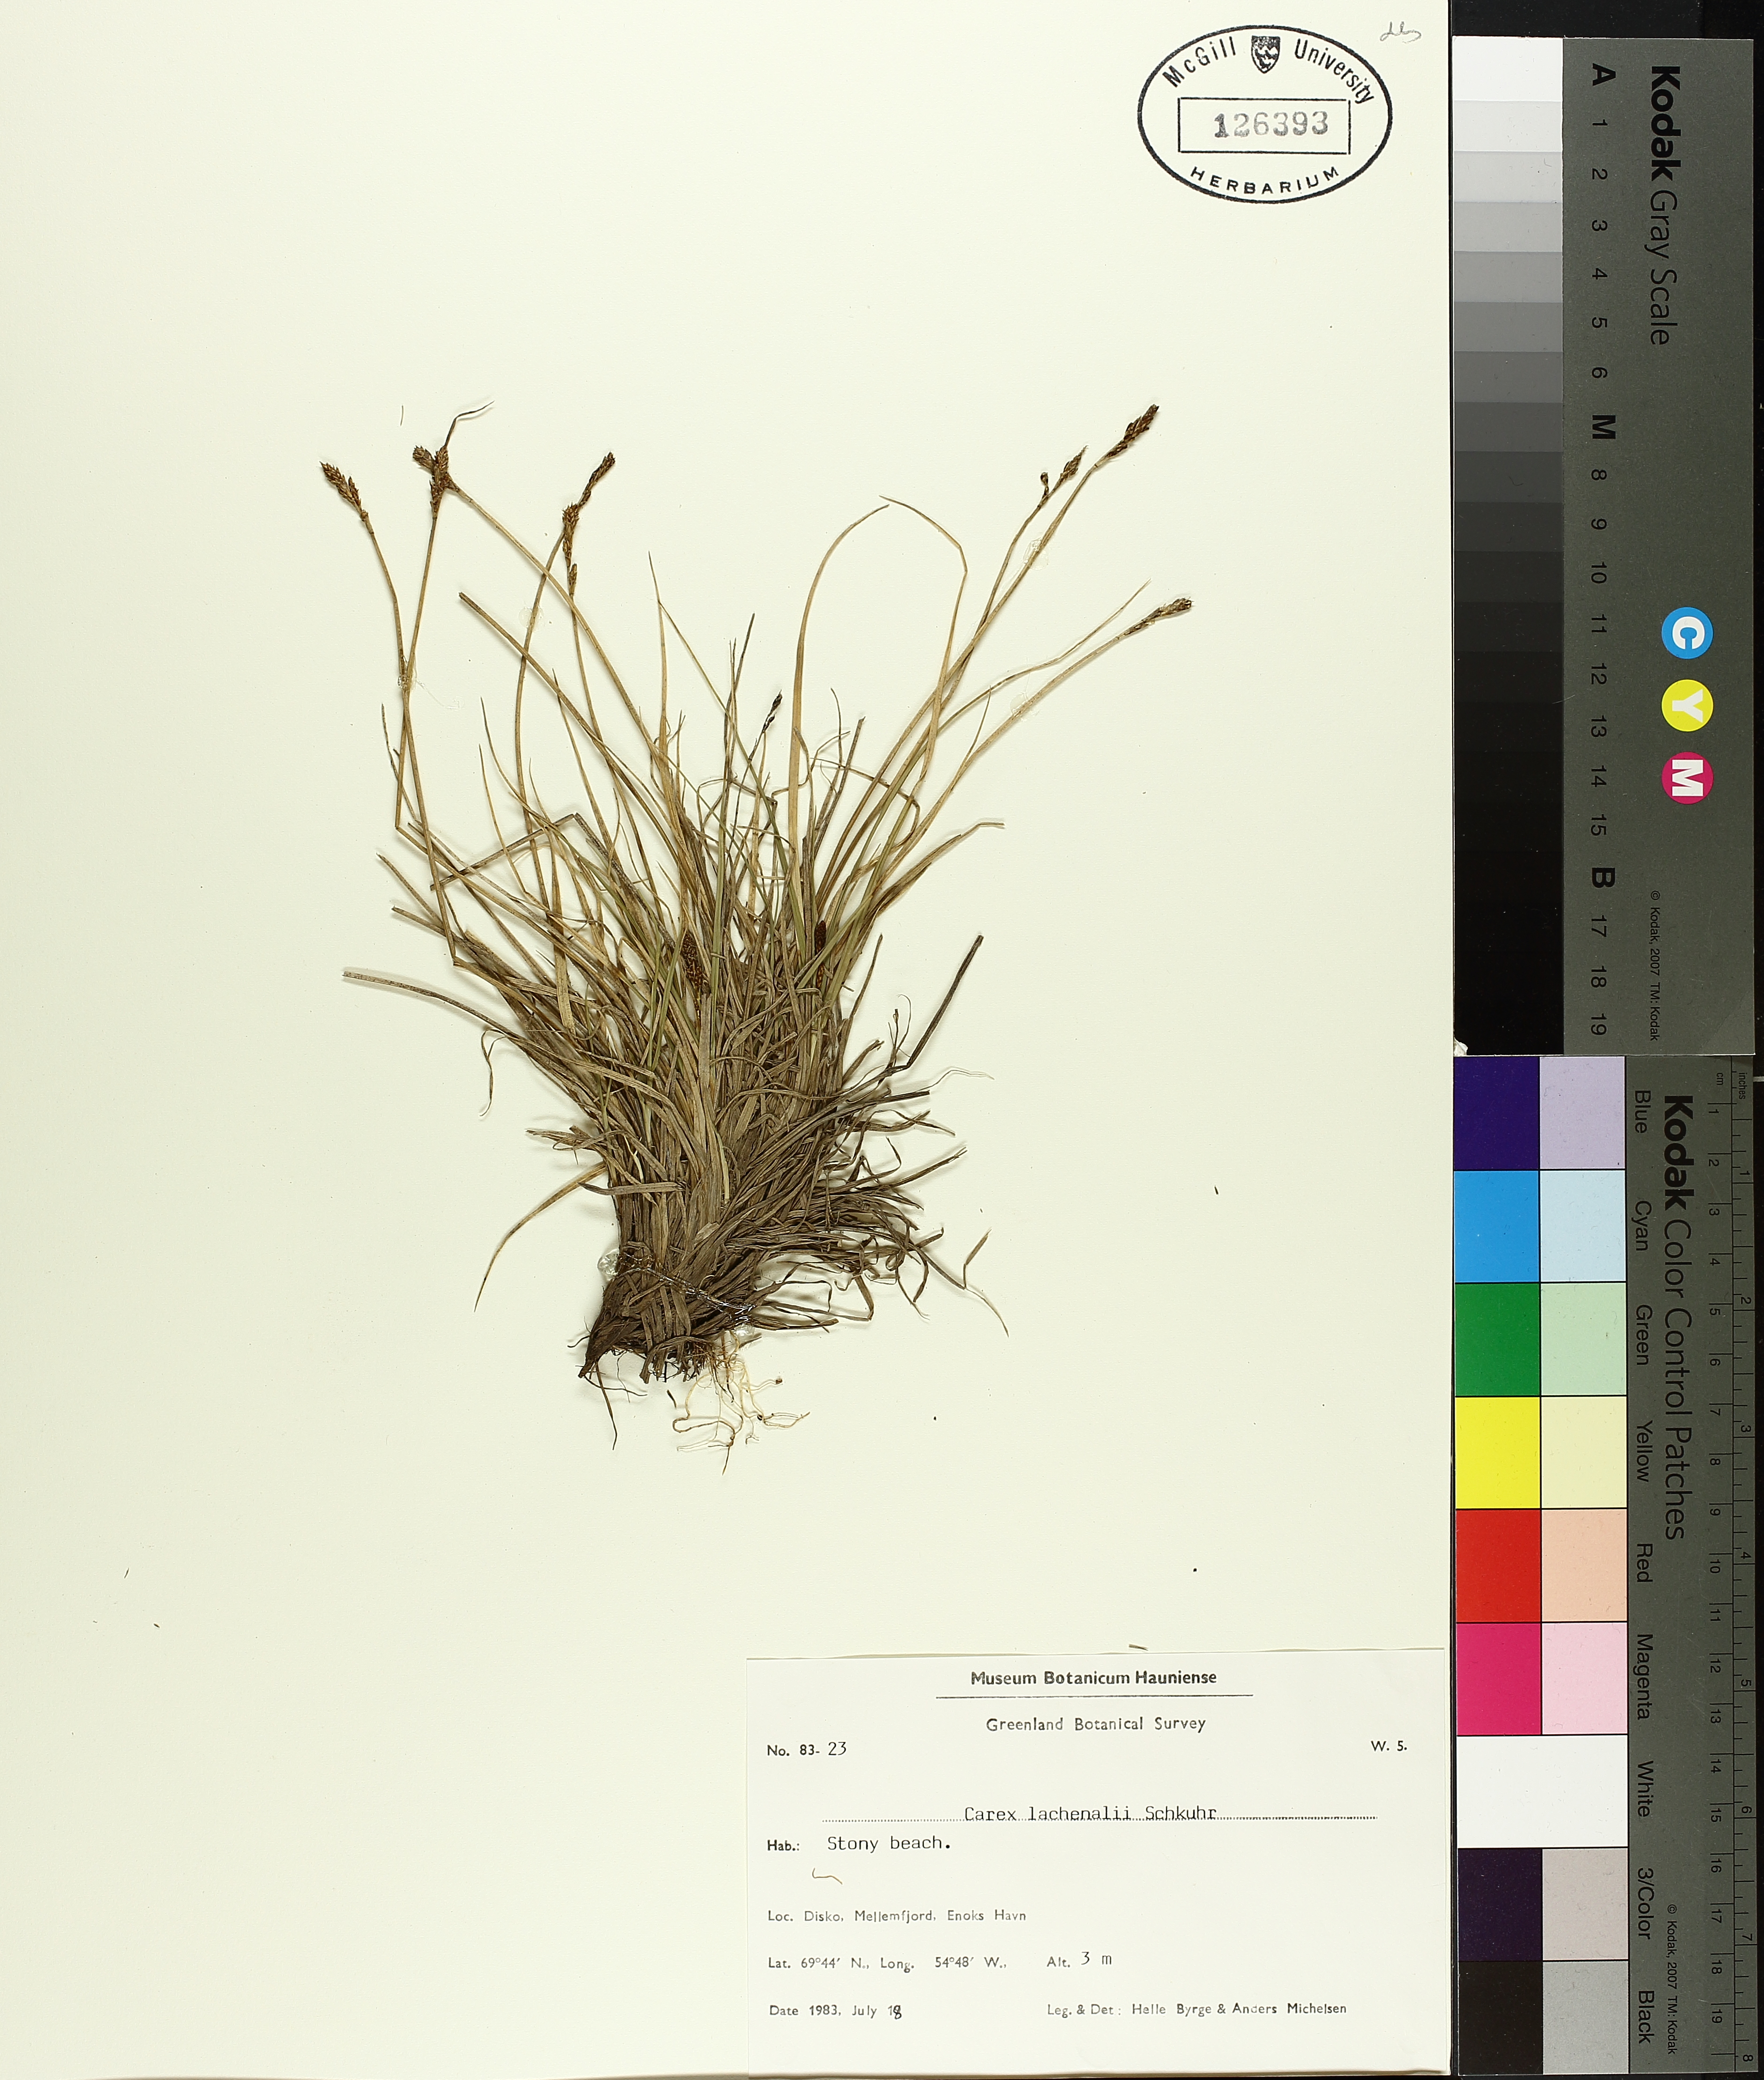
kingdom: Plantae
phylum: Tracheophyta
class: Liliopsida
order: Poales
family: Cyperaceae
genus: Carex
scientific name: Carex lachenalii
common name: Hare's-foot sedge
